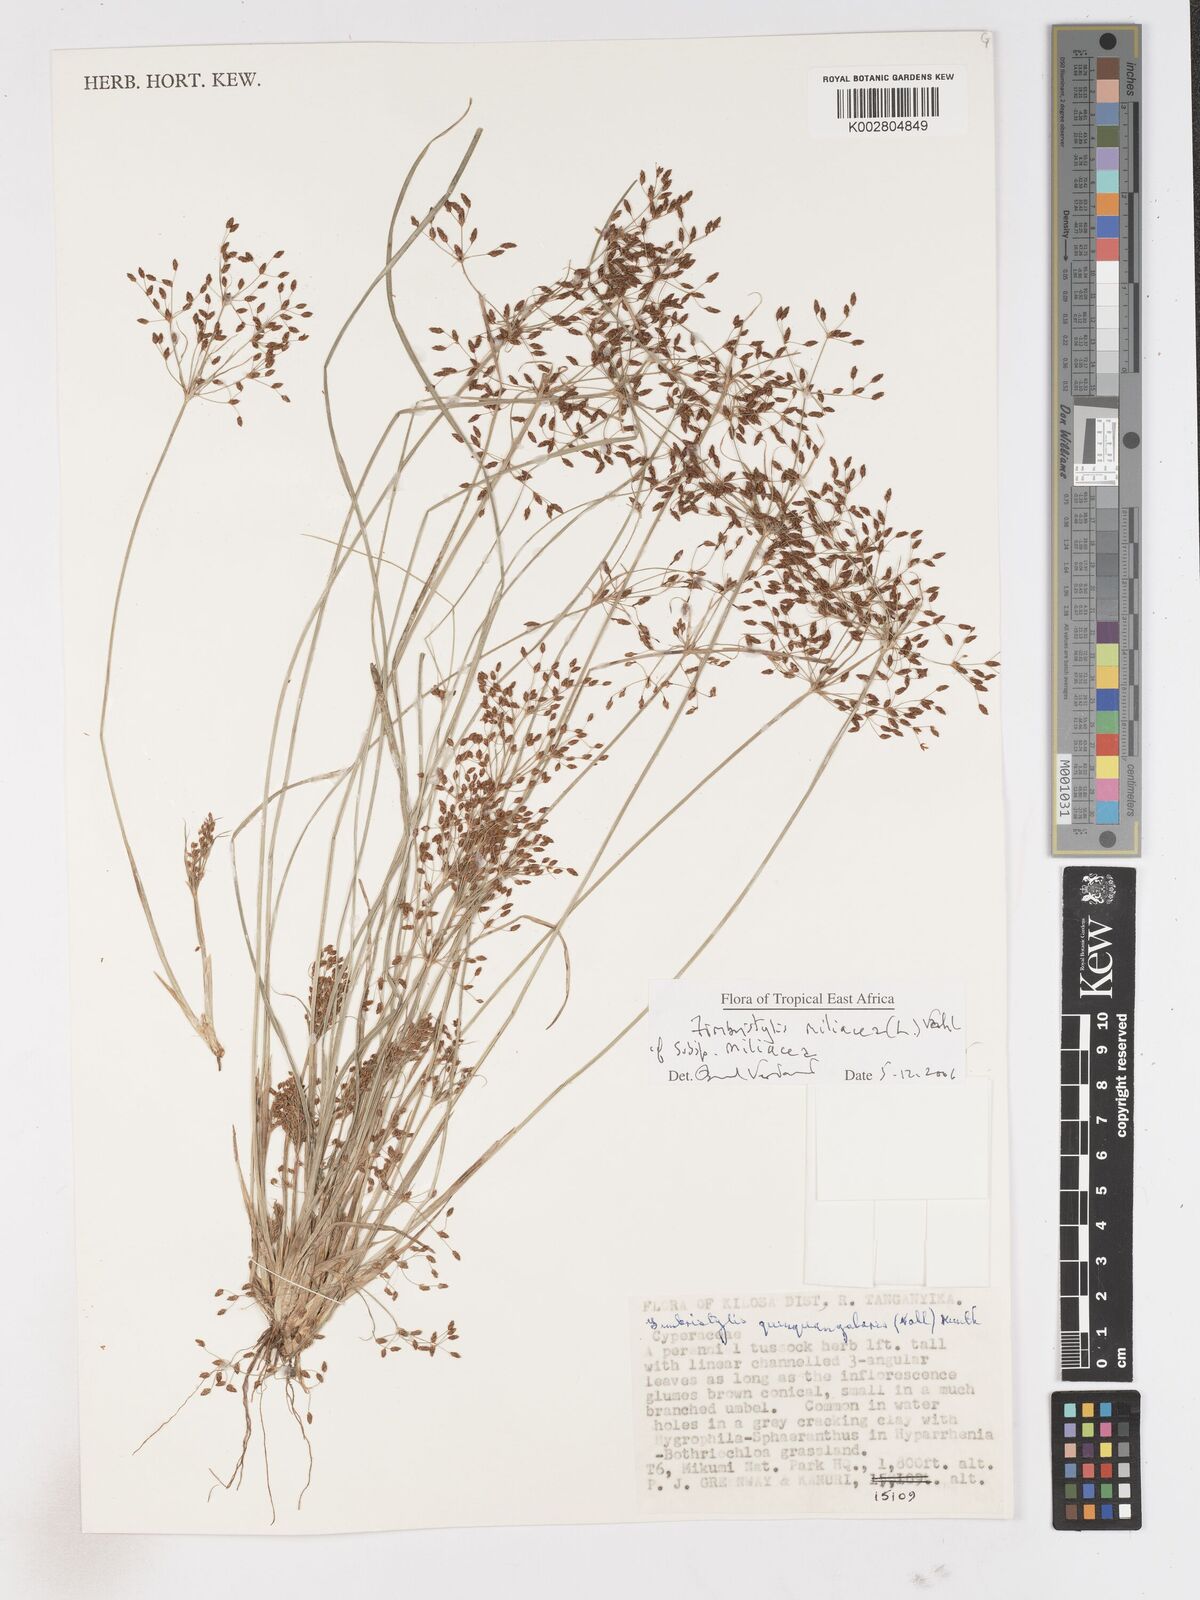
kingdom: Plantae
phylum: Tracheophyta
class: Liliopsida
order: Poales
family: Cyperaceae
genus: Fimbristylis
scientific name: Fimbristylis quinquangularis
